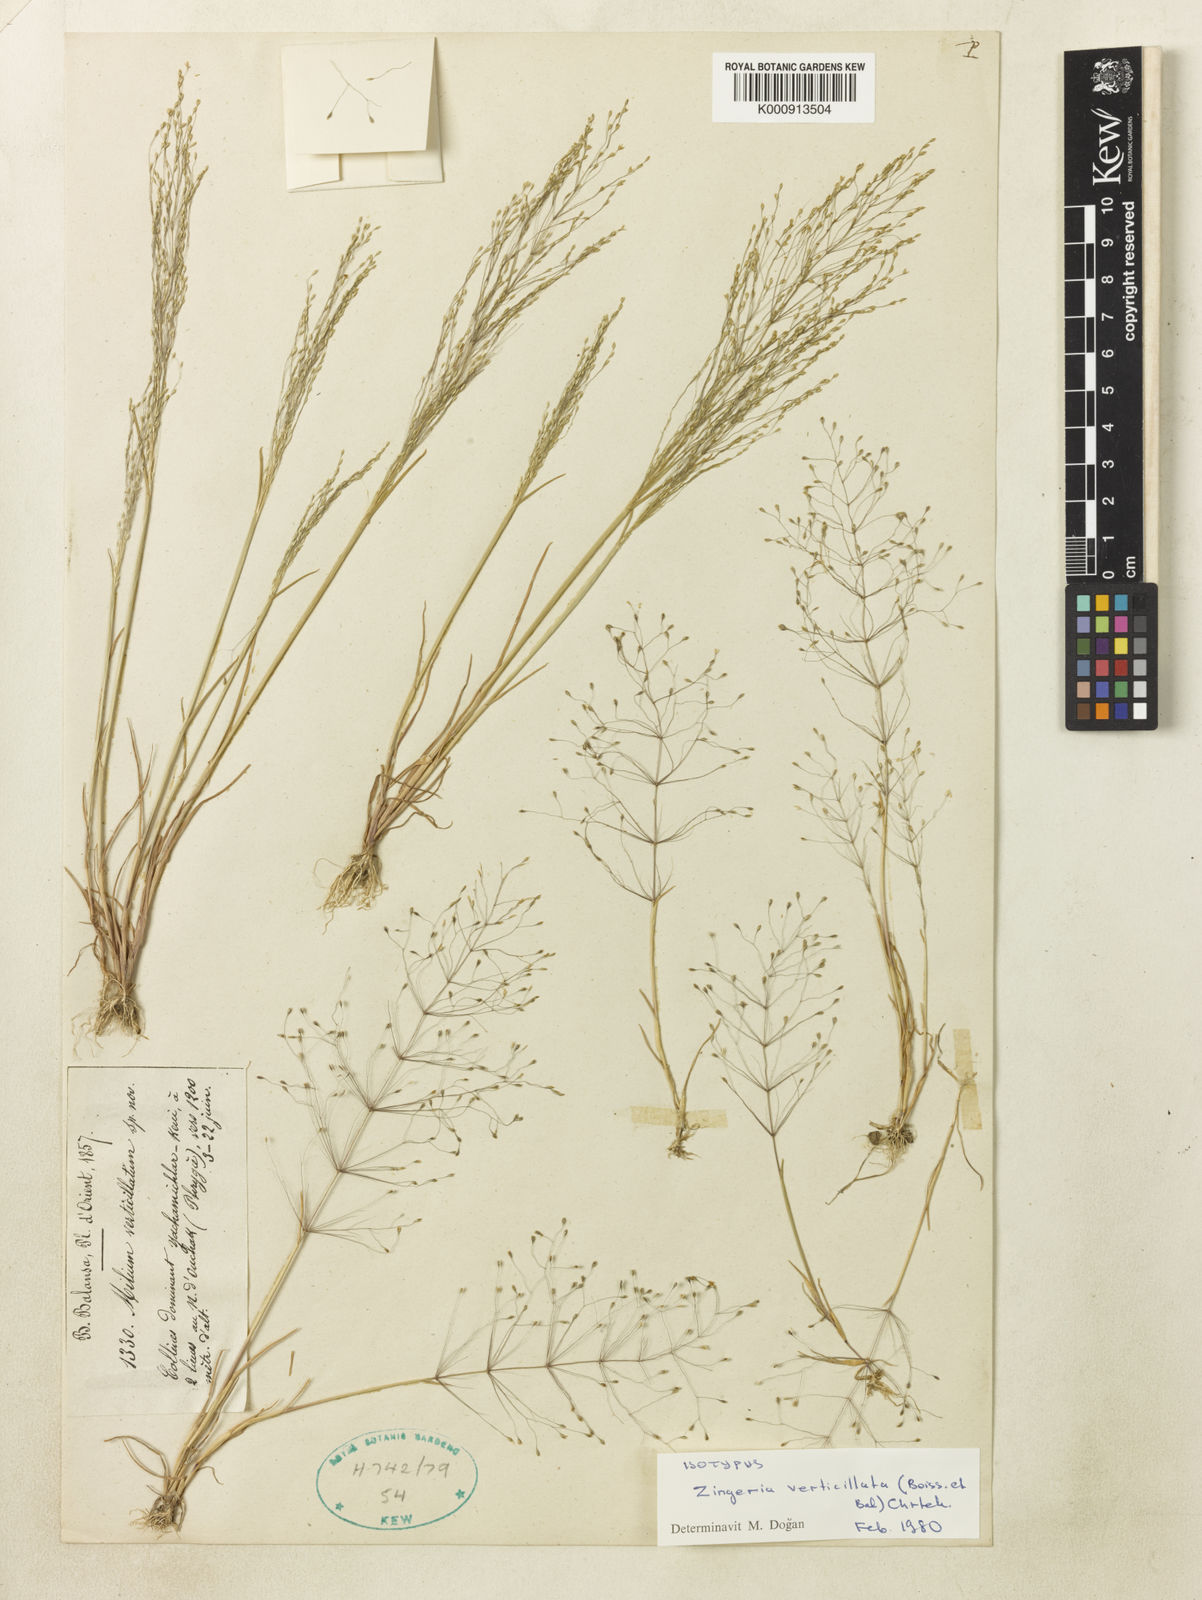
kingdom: Plantae
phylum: Tracheophyta
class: Liliopsida
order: Poales
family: Poaceae
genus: Colpodium
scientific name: Colpodium verticillatum
